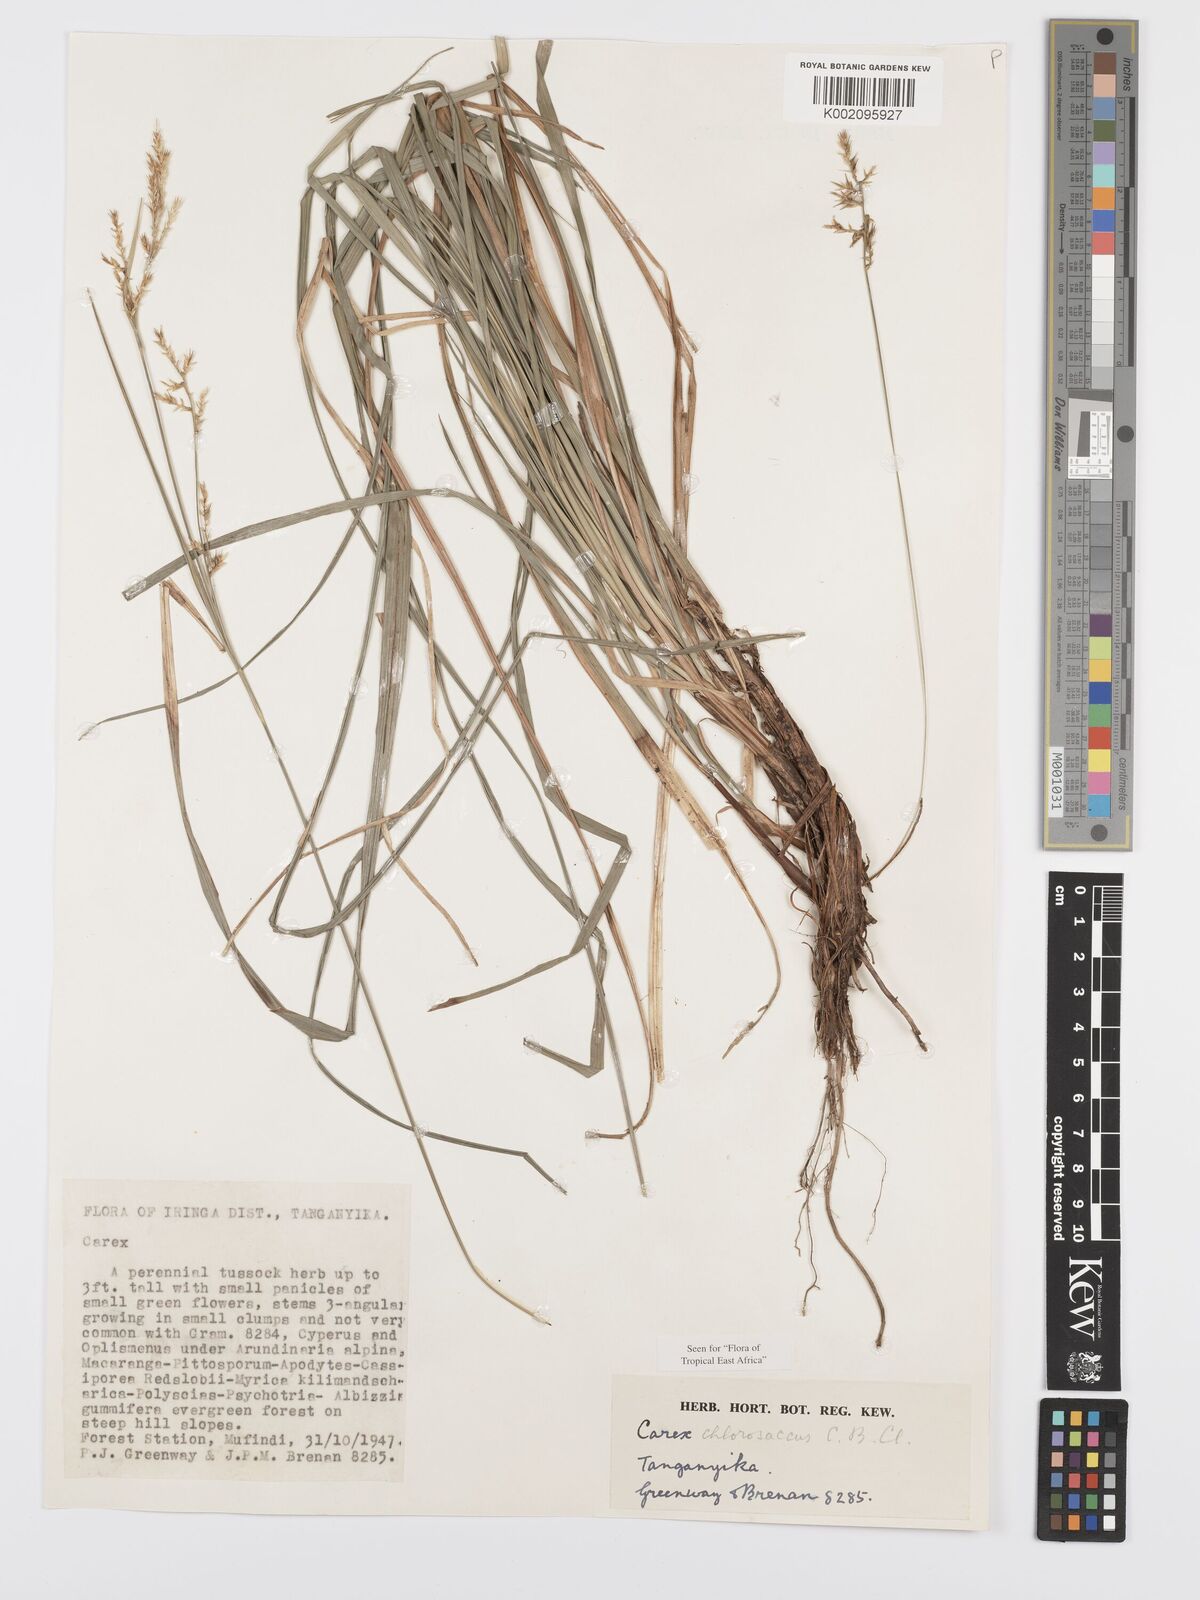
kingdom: Plantae
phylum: Tracheophyta
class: Liliopsida
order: Poales
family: Cyperaceae
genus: Carex
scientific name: Carex chlorosaccus
